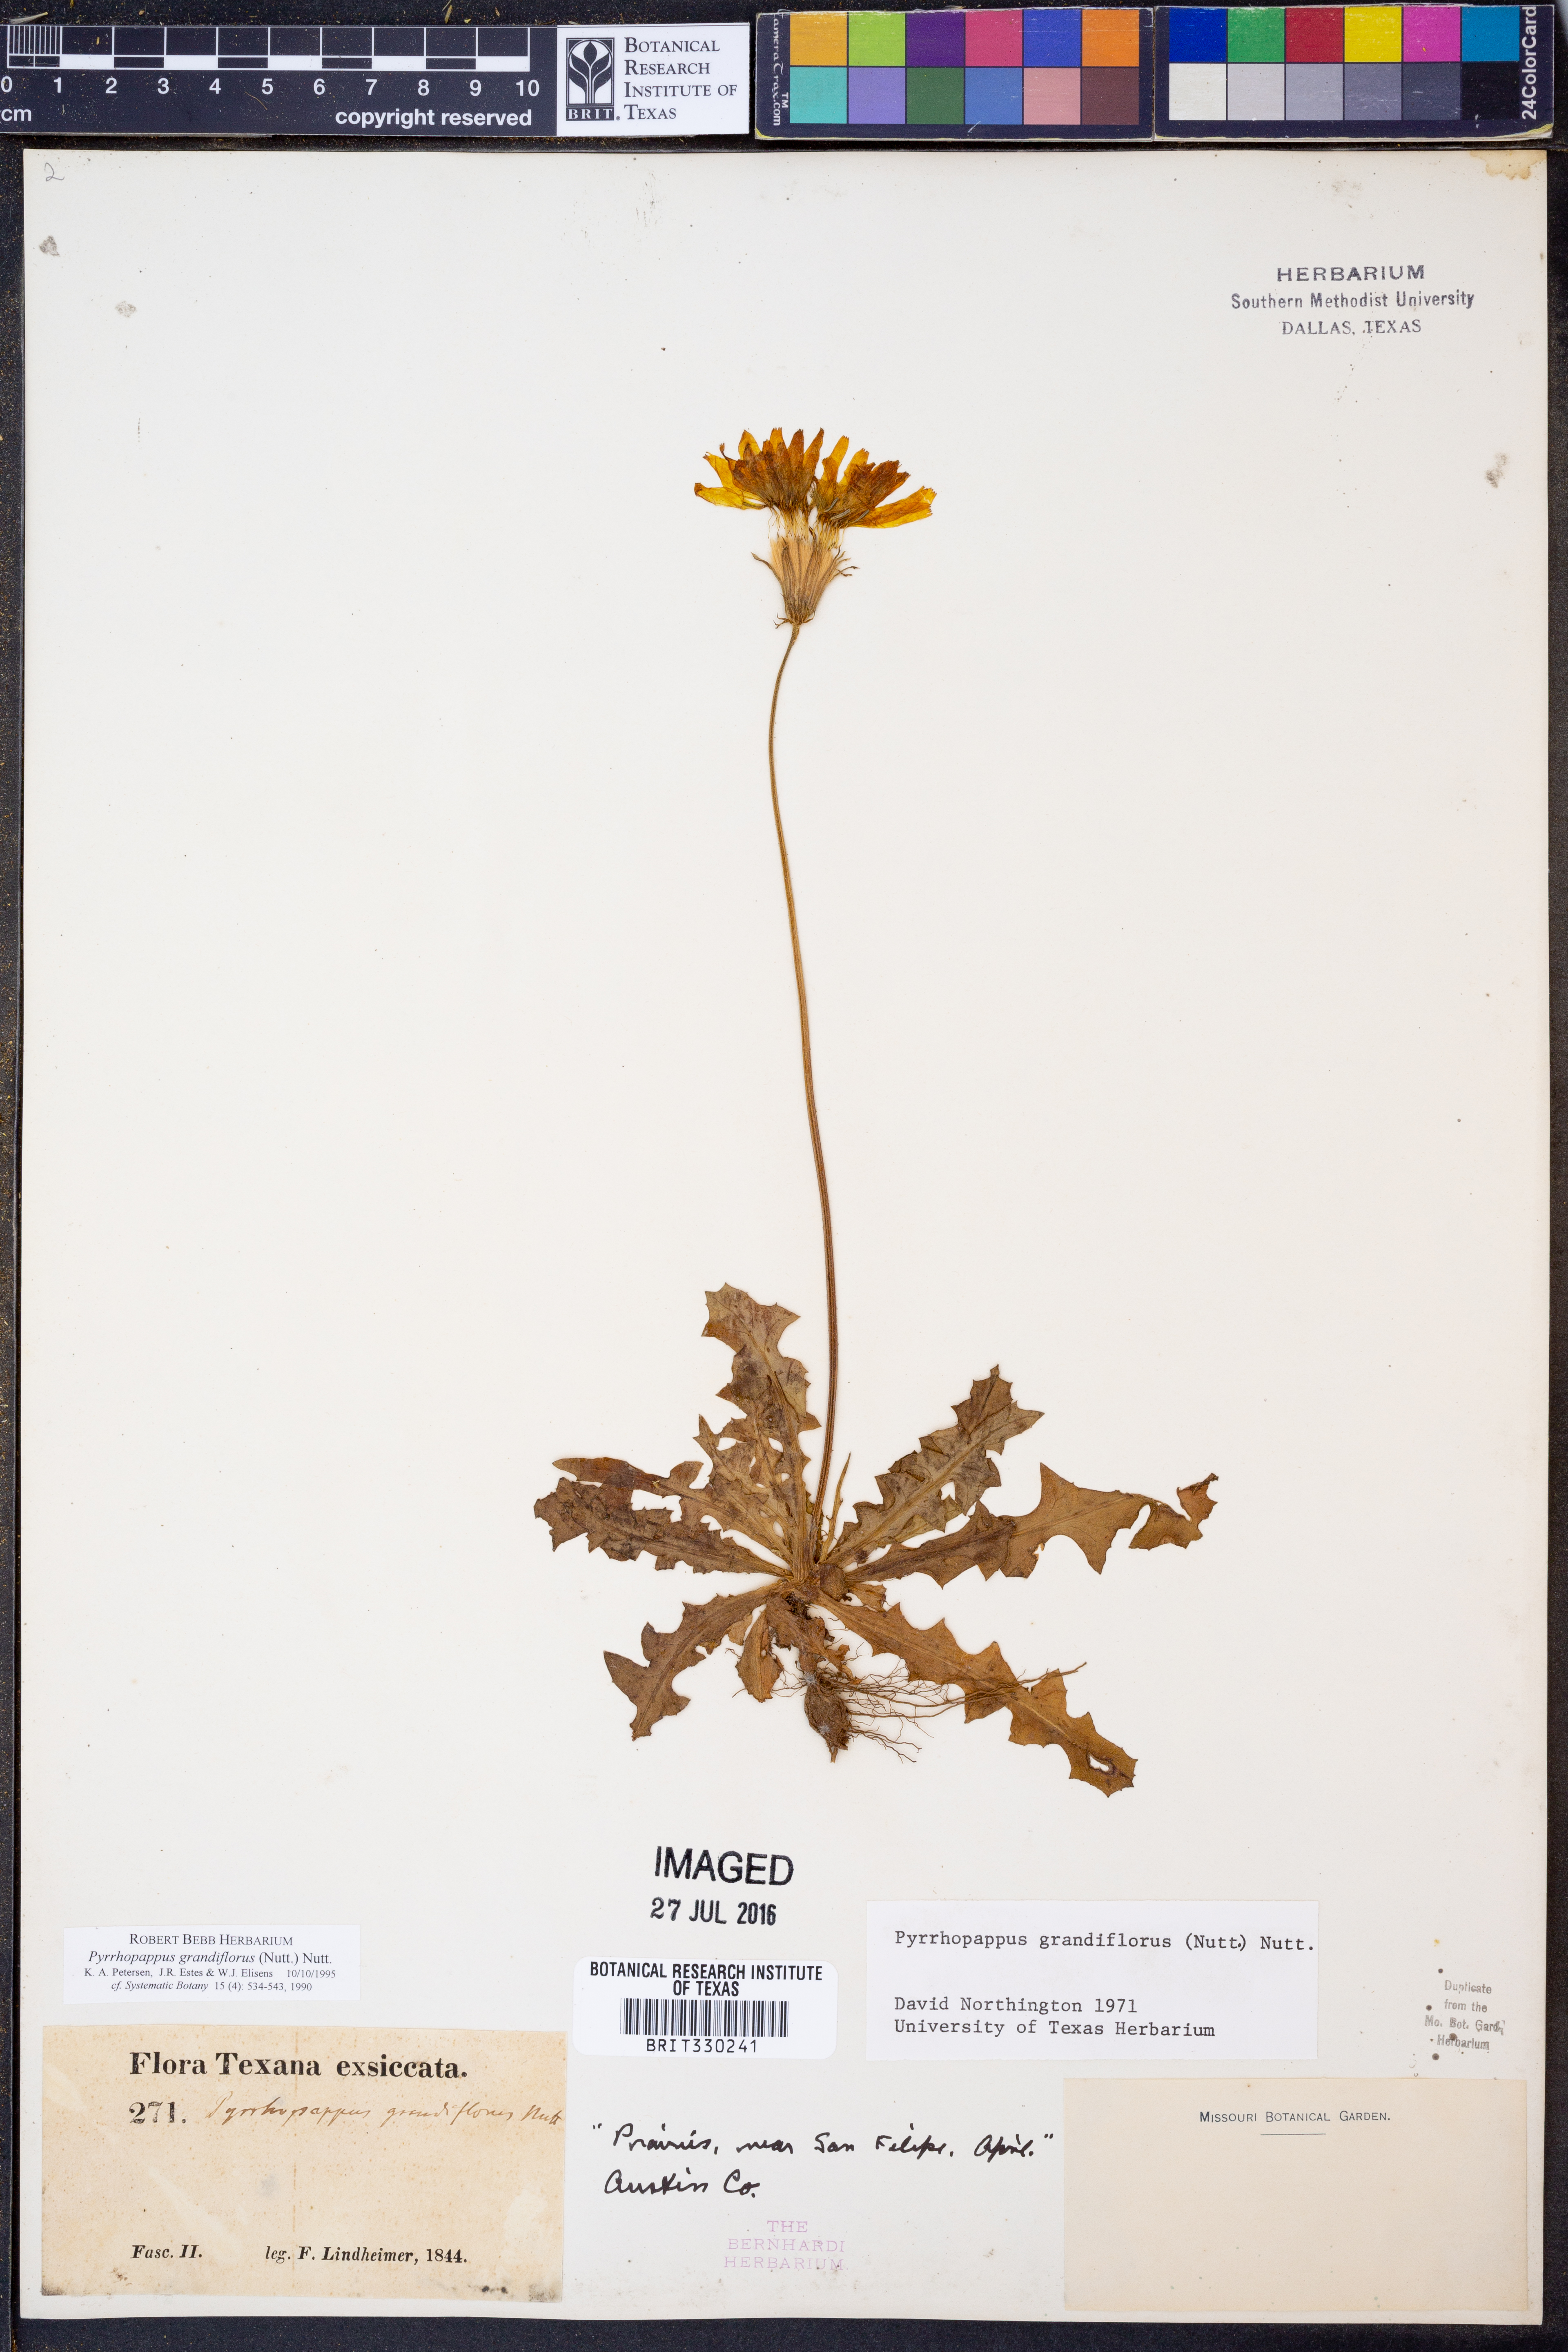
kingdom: Plantae
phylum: Tracheophyta
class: Magnoliopsida
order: Asterales
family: Asteraceae
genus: Pyrrhopappus
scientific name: Pyrrhopappus grandiflorus
